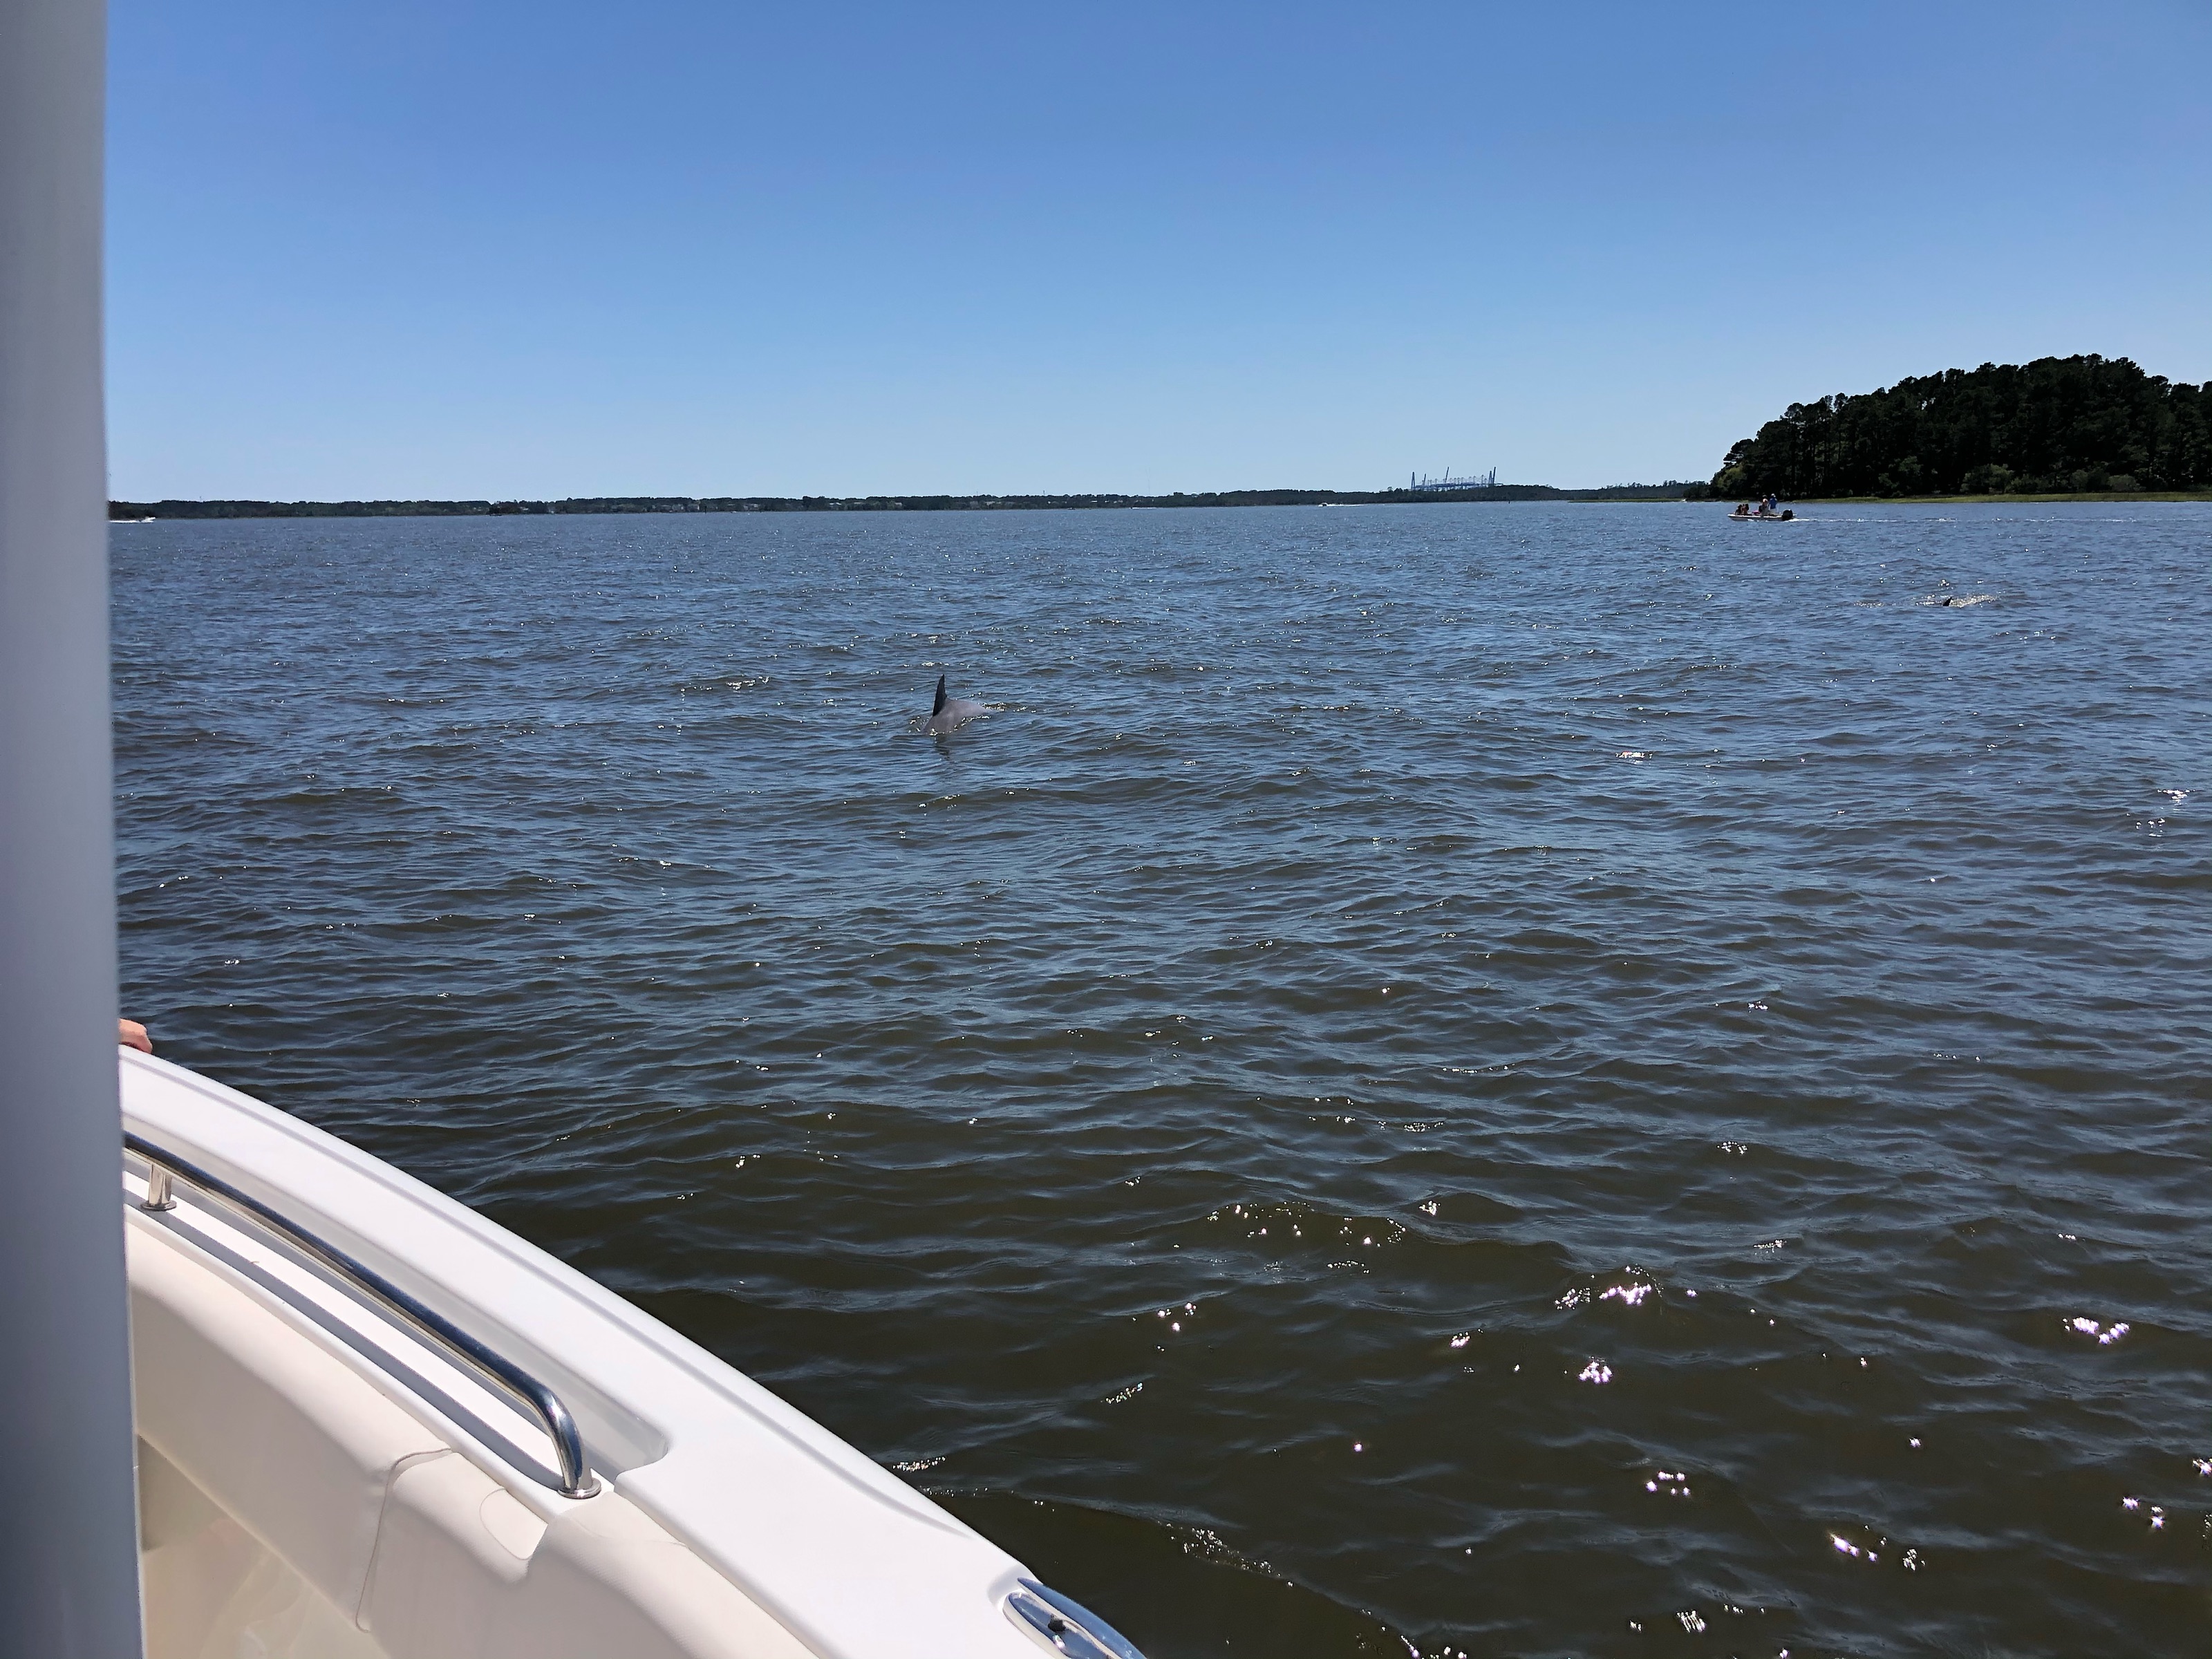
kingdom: Animalia
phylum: Chordata
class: Mammalia
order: Cetacea
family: Delphinidae
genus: Tursiops
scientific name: Tursiops truncatus
